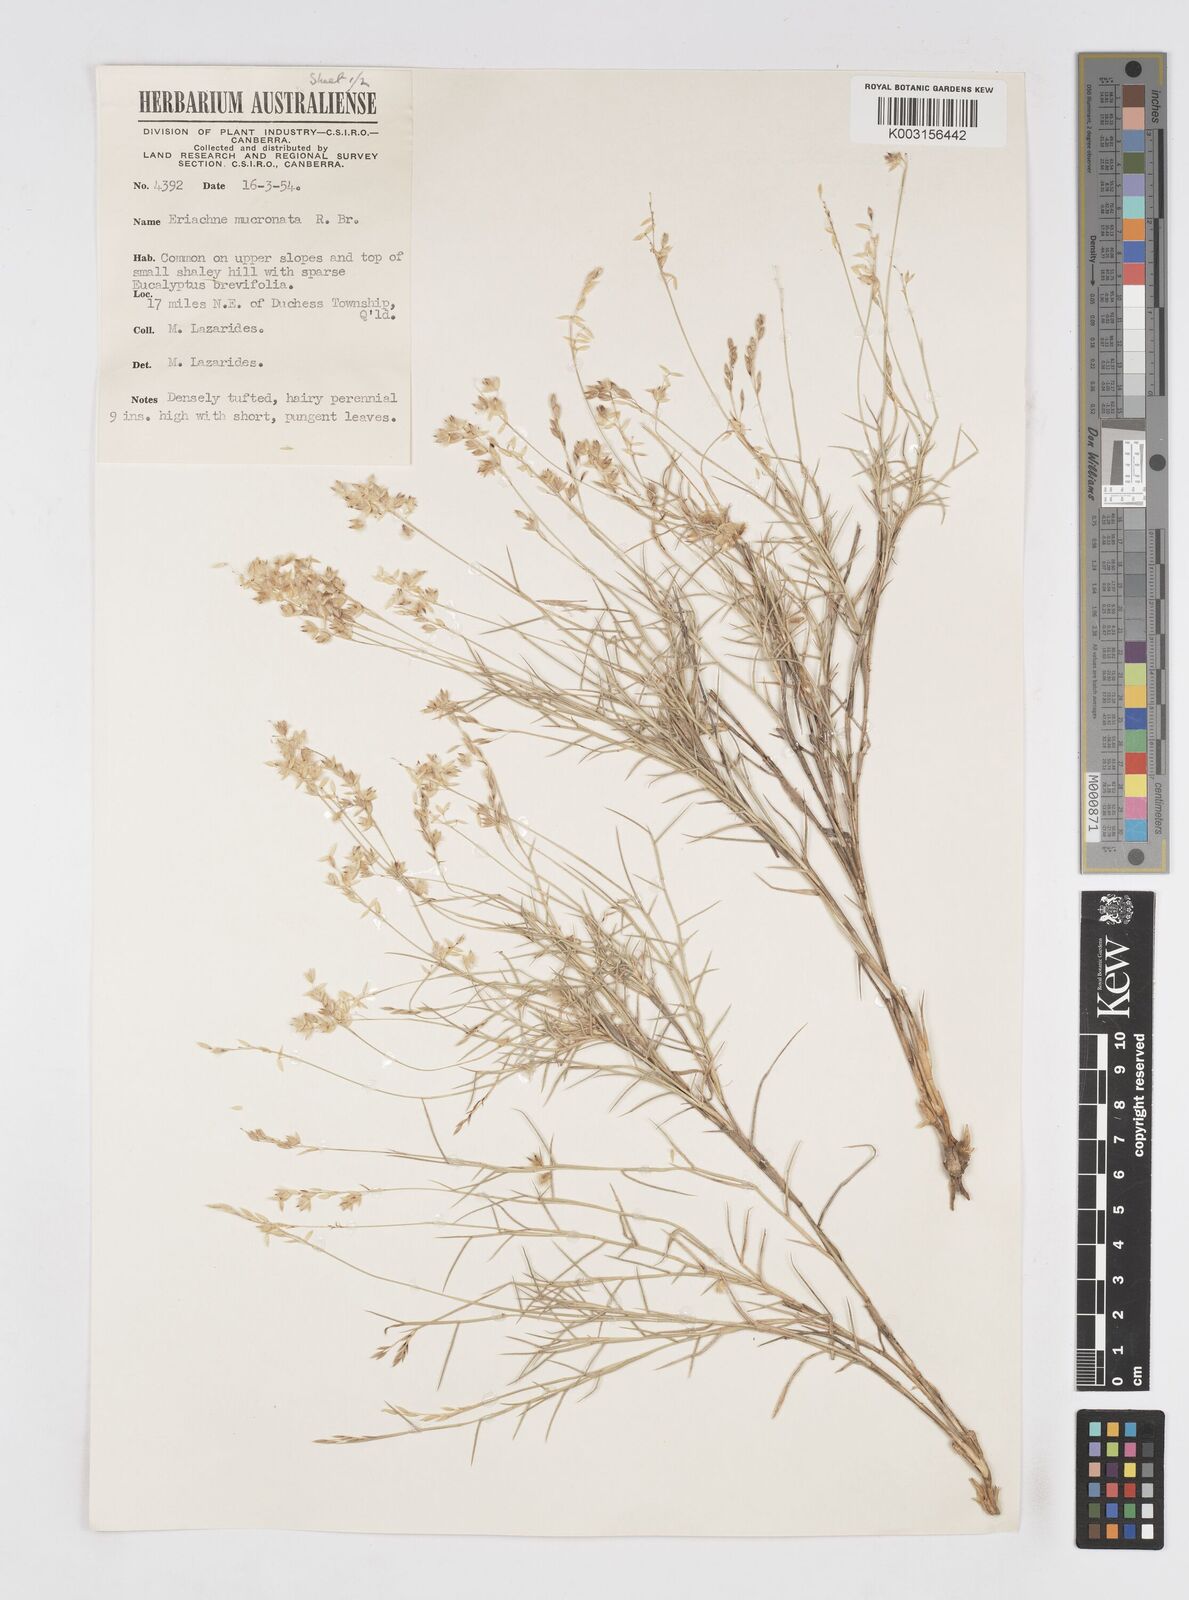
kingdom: Plantae
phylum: Tracheophyta
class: Liliopsida
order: Poales
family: Poaceae
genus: Eriachne
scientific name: Eriachne mucronata
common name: Mountain wanderrie grass
